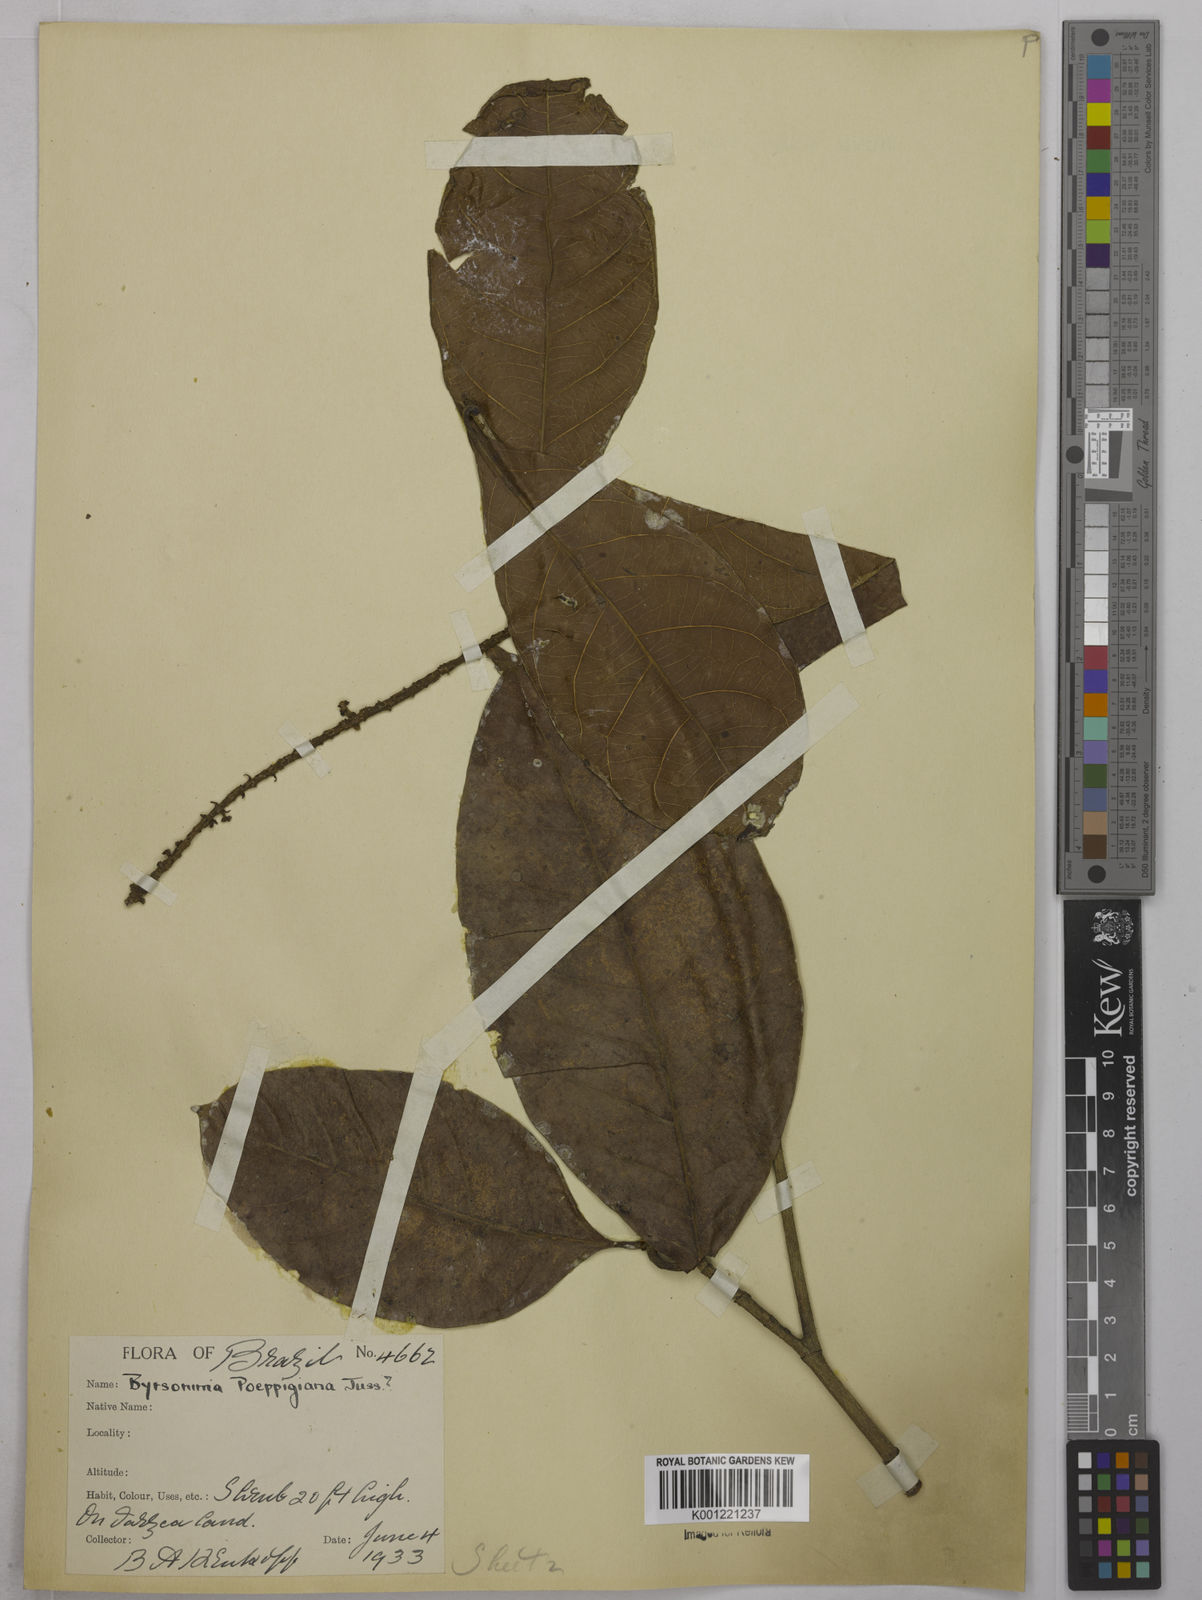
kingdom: Plantae
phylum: Tracheophyta
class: Magnoliopsida
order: Malpighiales
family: Malpighiaceae
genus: Byrsonima
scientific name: Byrsonima poeppigiana
